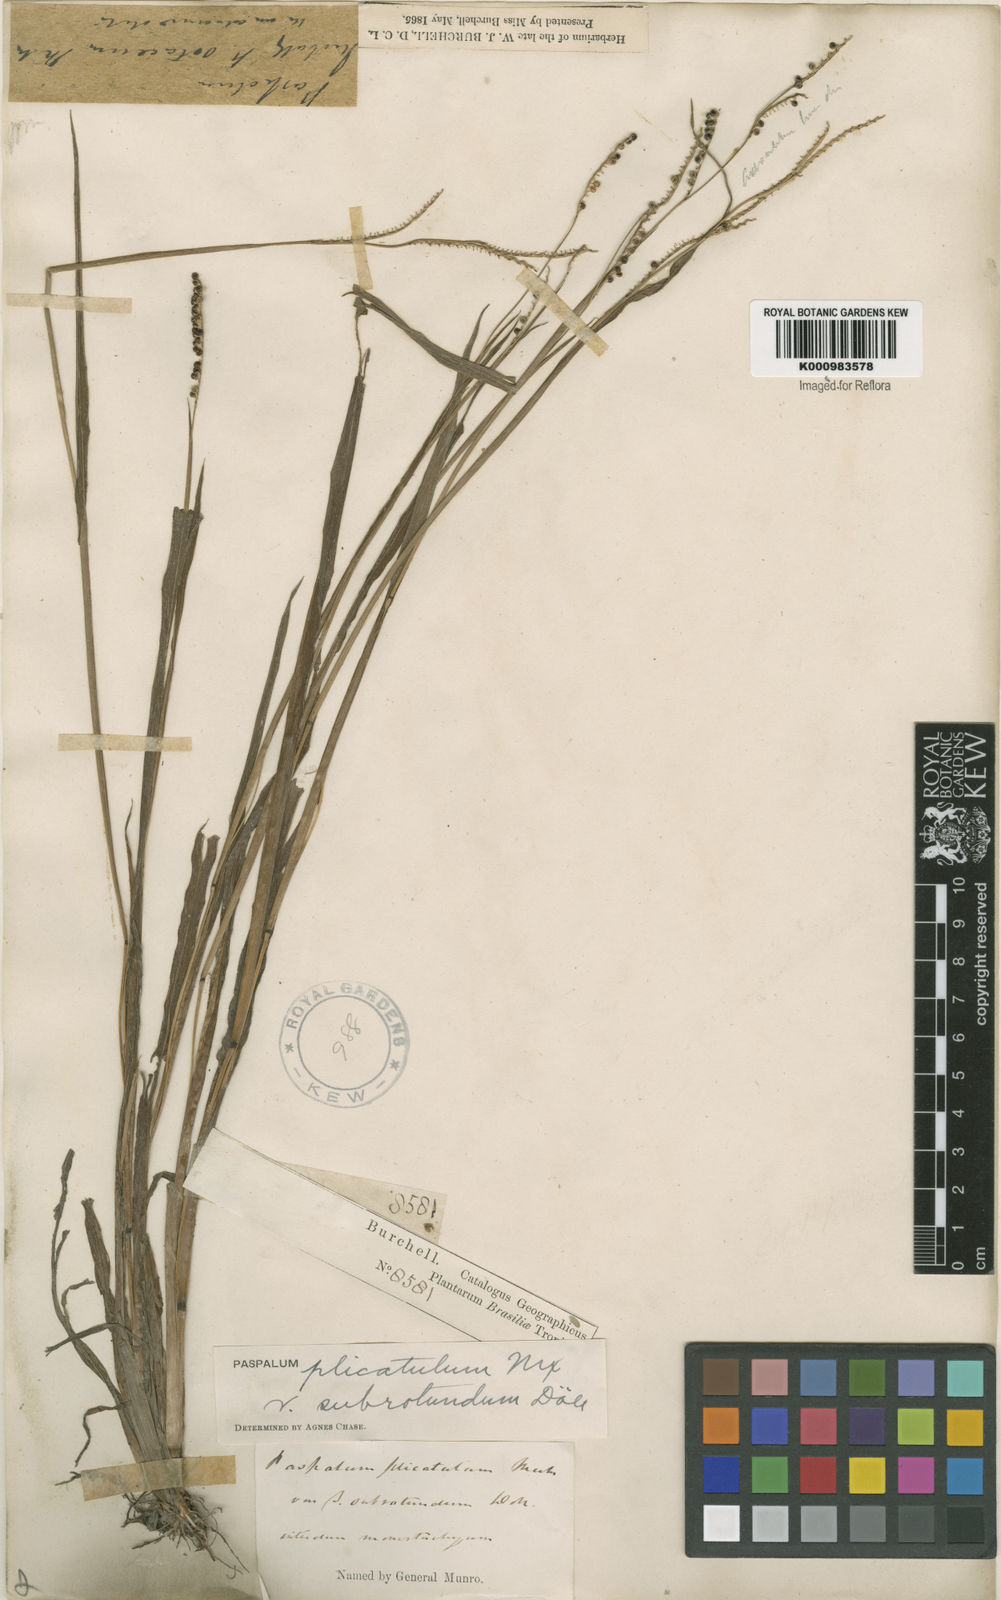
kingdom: Plantae
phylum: Tracheophyta
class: Liliopsida
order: Poales
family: Poaceae
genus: Paspalum
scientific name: Paspalum
